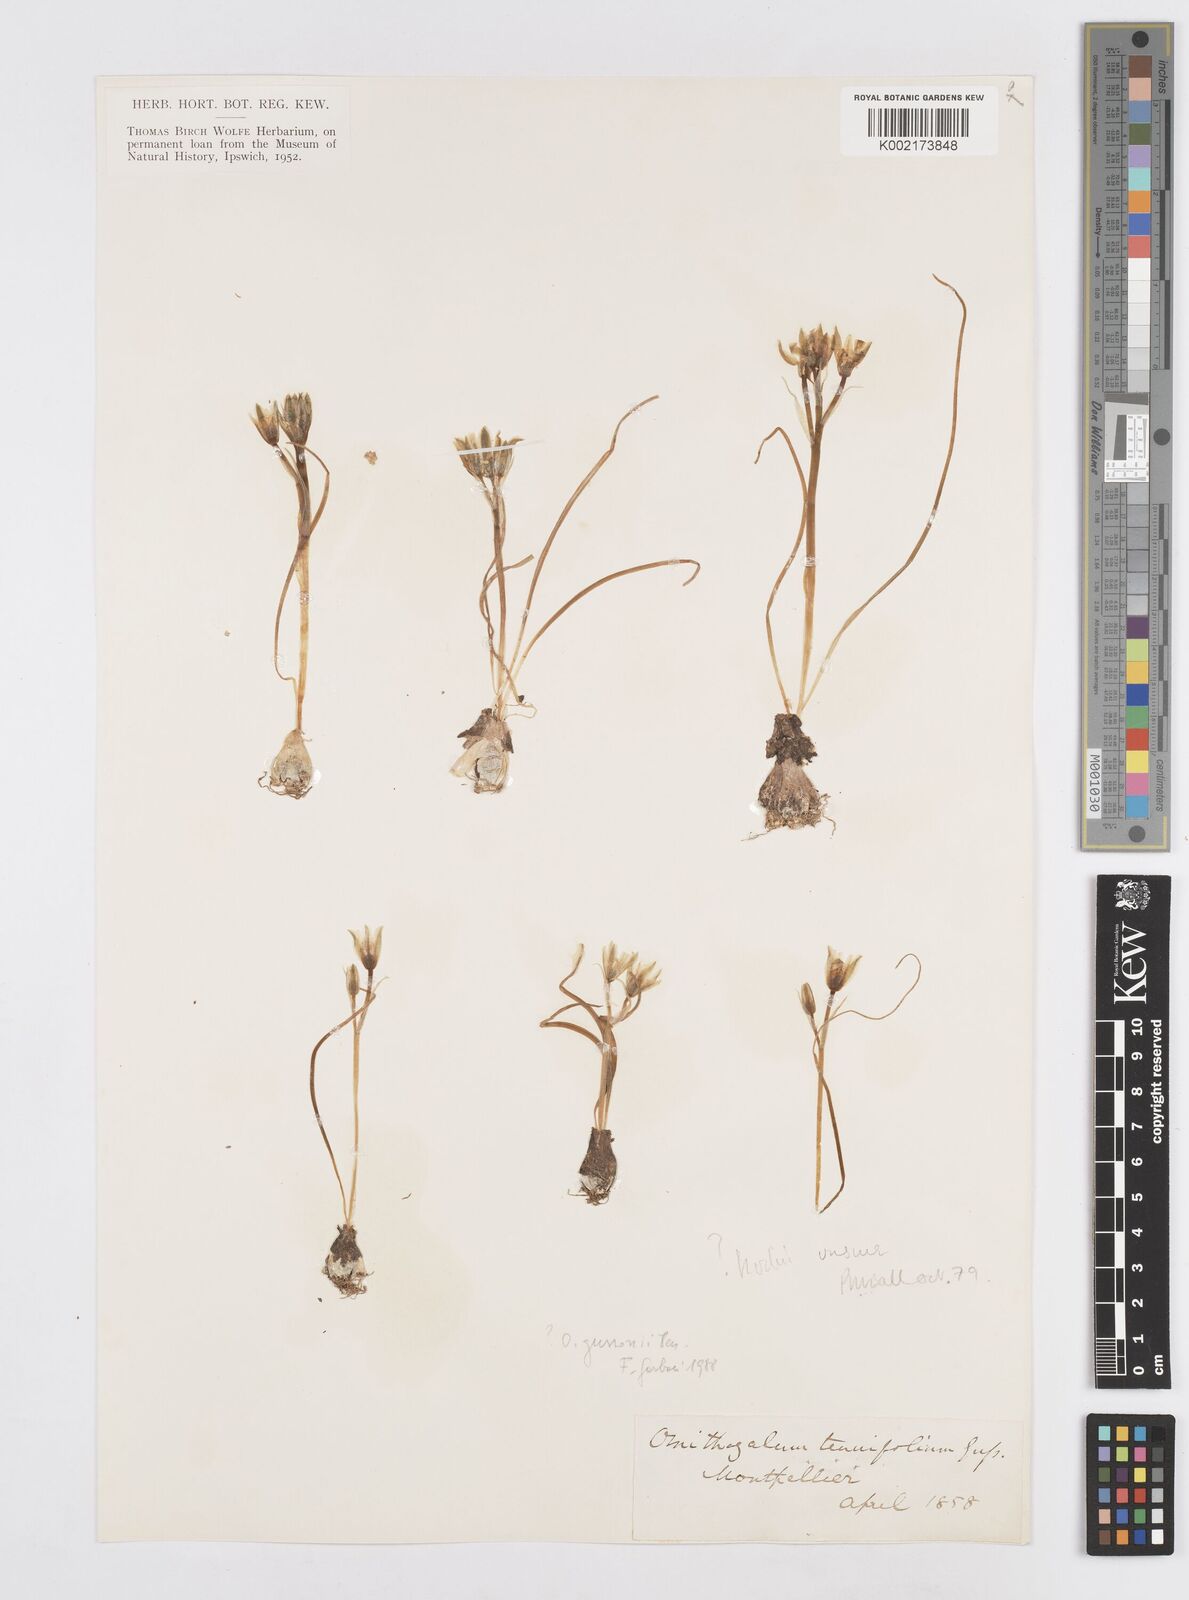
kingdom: Plantae
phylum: Tracheophyta
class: Liliopsida
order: Asparagales
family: Asparagaceae
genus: Ornithogalum
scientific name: Ornithogalum orthophyllum
